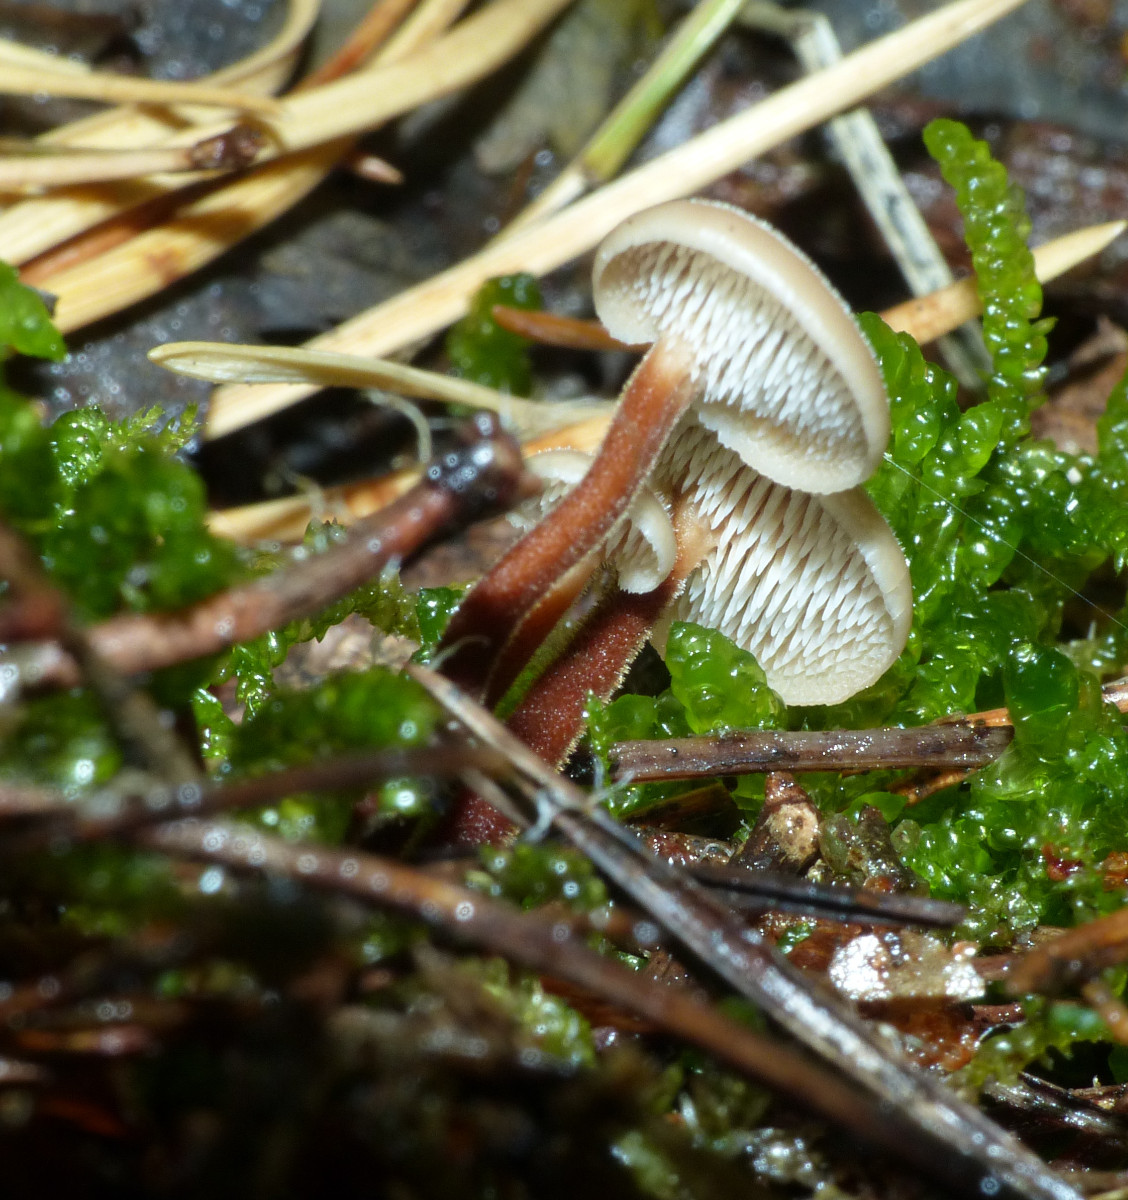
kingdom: Fungi
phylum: Basidiomycota
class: Agaricomycetes
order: Russulales
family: Auriscalpiaceae
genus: Auriscalpium
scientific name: Auriscalpium vulgare
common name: koglepigsvamp
